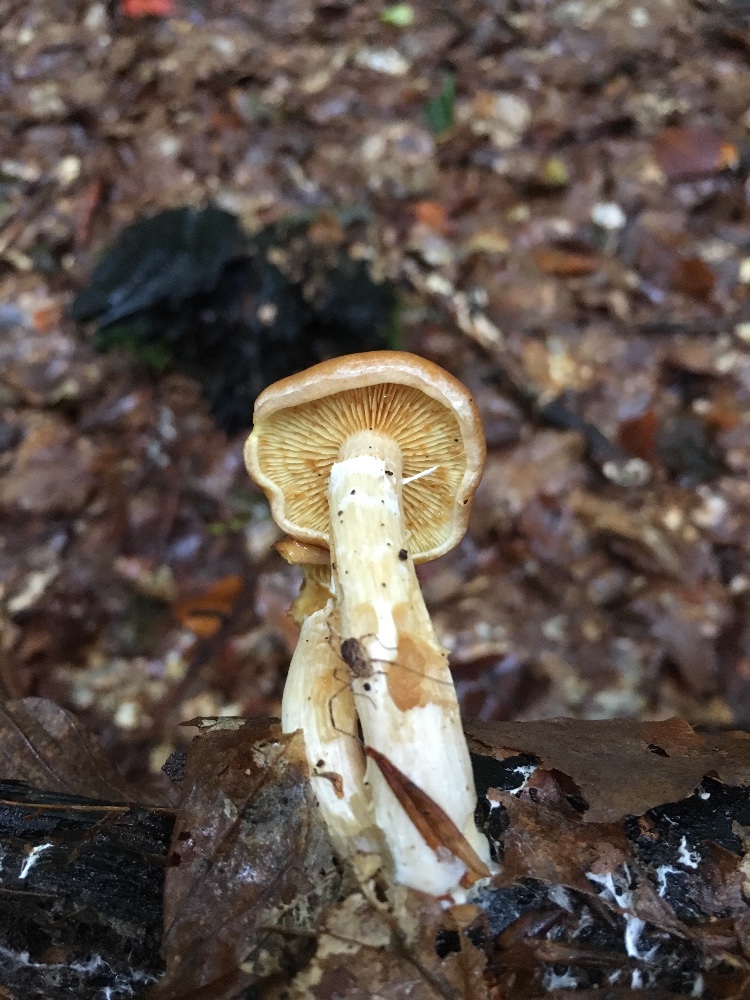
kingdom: Fungi
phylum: Basidiomycota
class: Agaricomycetes
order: Agaricales
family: Hymenogastraceae
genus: Gymnopilus
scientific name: Gymnopilus penetrans
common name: plettet flammehat
